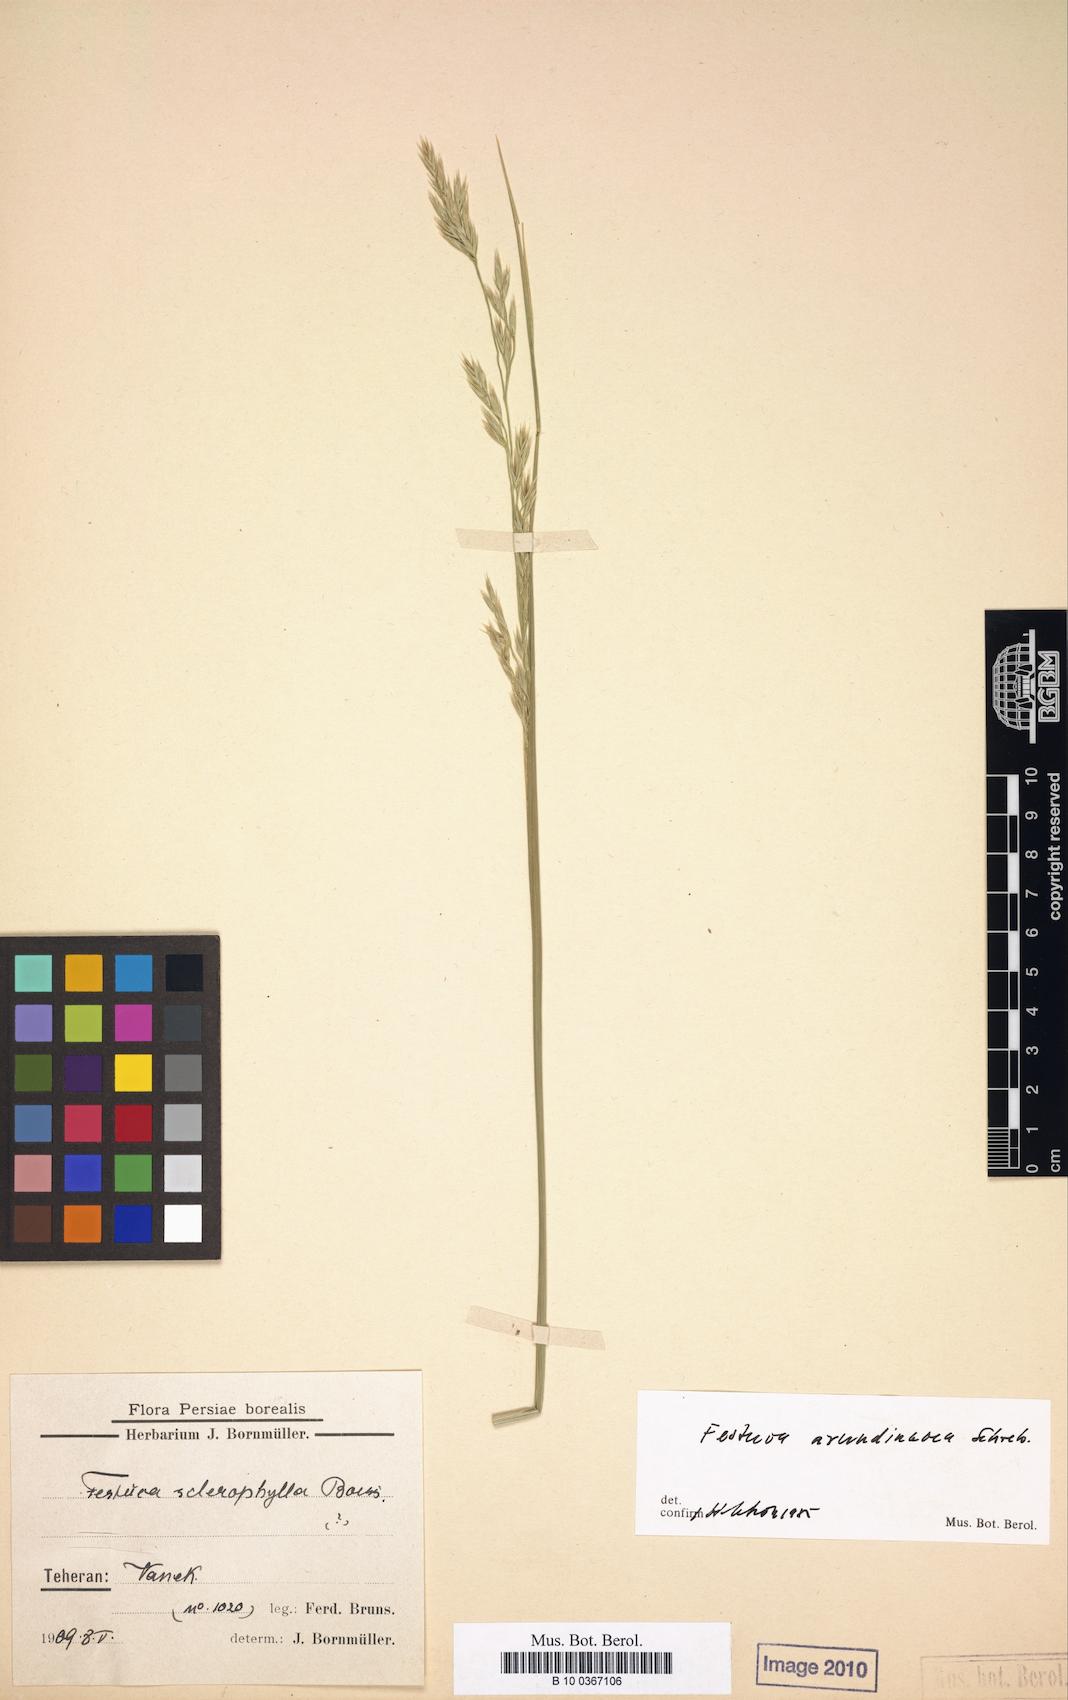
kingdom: Plantae
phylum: Tracheophyta
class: Liliopsida
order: Poales
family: Poaceae
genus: Festuca
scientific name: Festuca pseudosclerophylla
